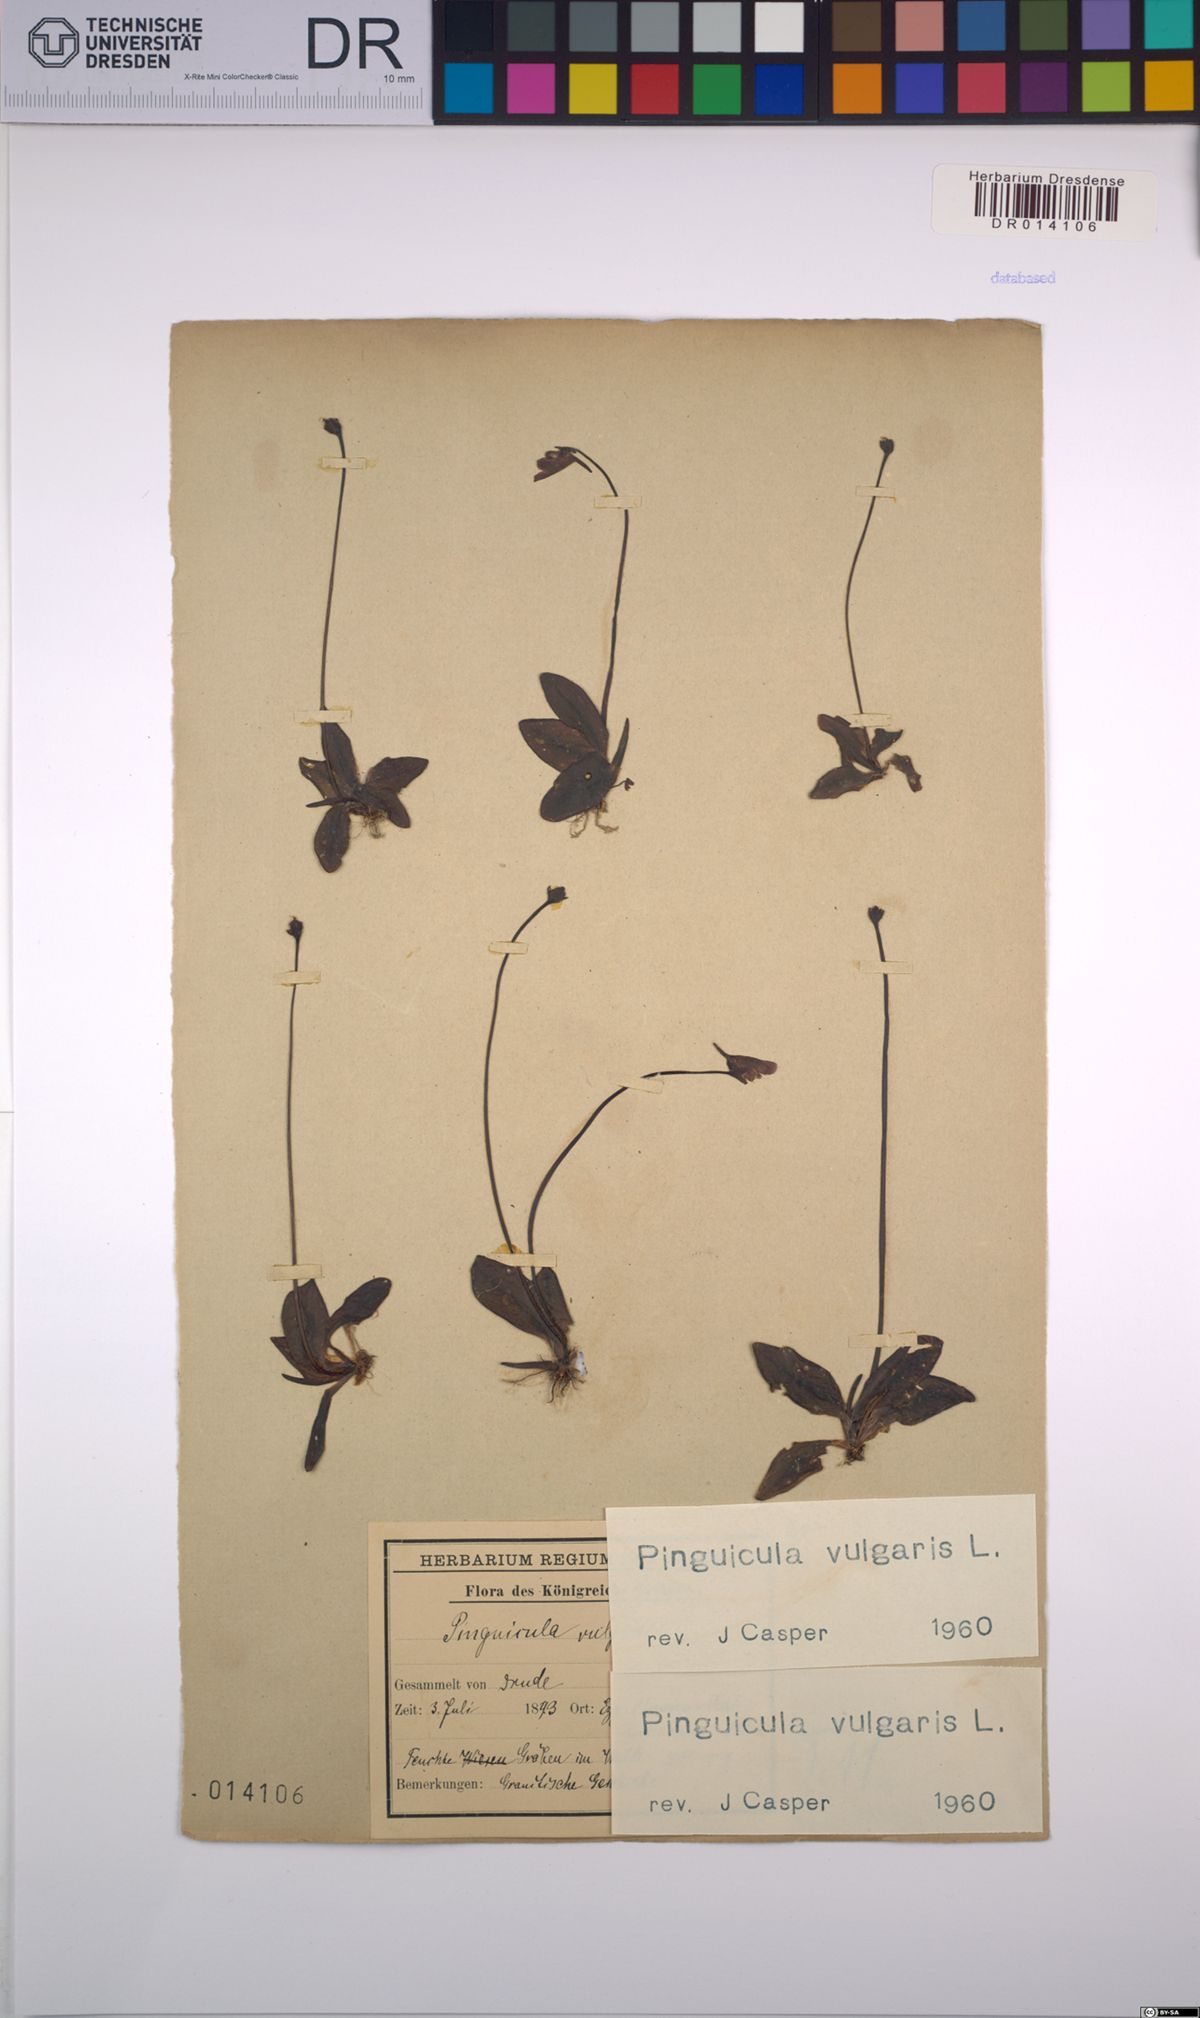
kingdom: Plantae
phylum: Tracheophyta
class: Magnoliopsida
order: Lamiales
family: Lentibulariaceae
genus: Pinguicula
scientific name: Pinguicula vulgaris
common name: Common butterwort
